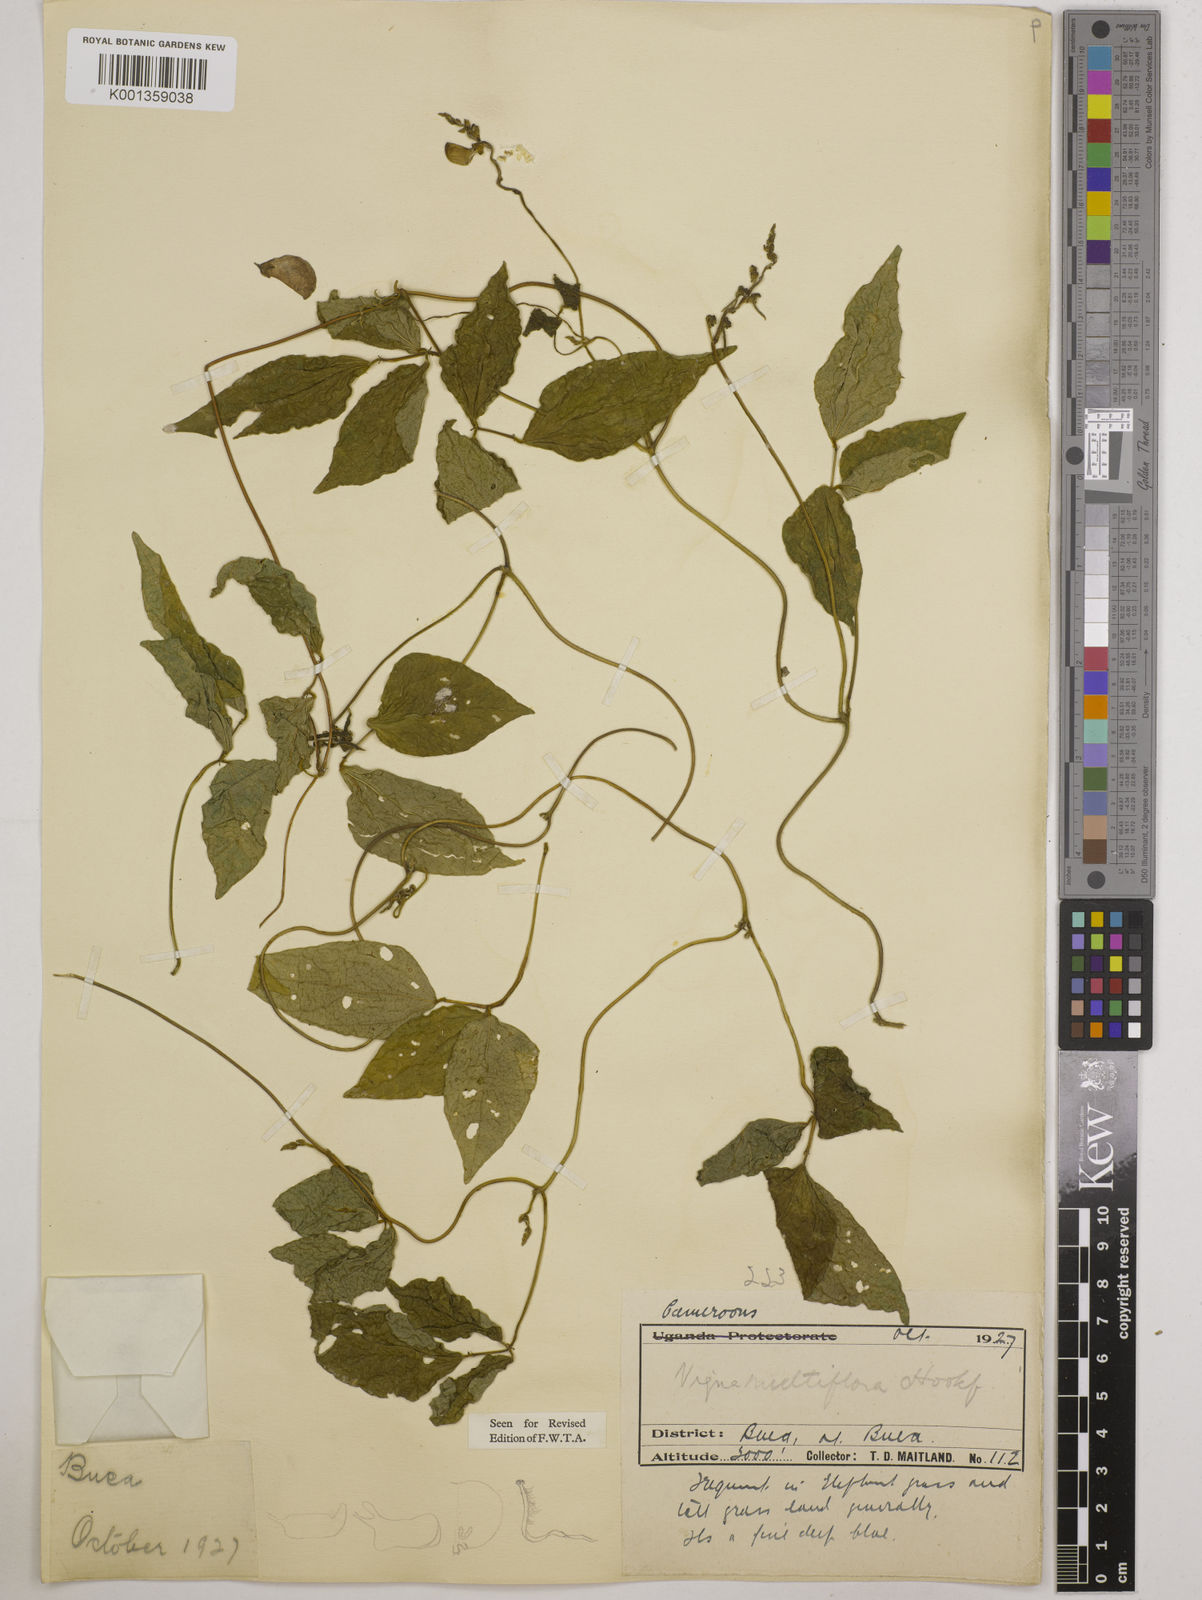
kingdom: Plantae
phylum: Tracheophyta
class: Magnoliopsida
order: Fabales
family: Fabaceae
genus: Vigna
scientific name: Vigna gracilis
